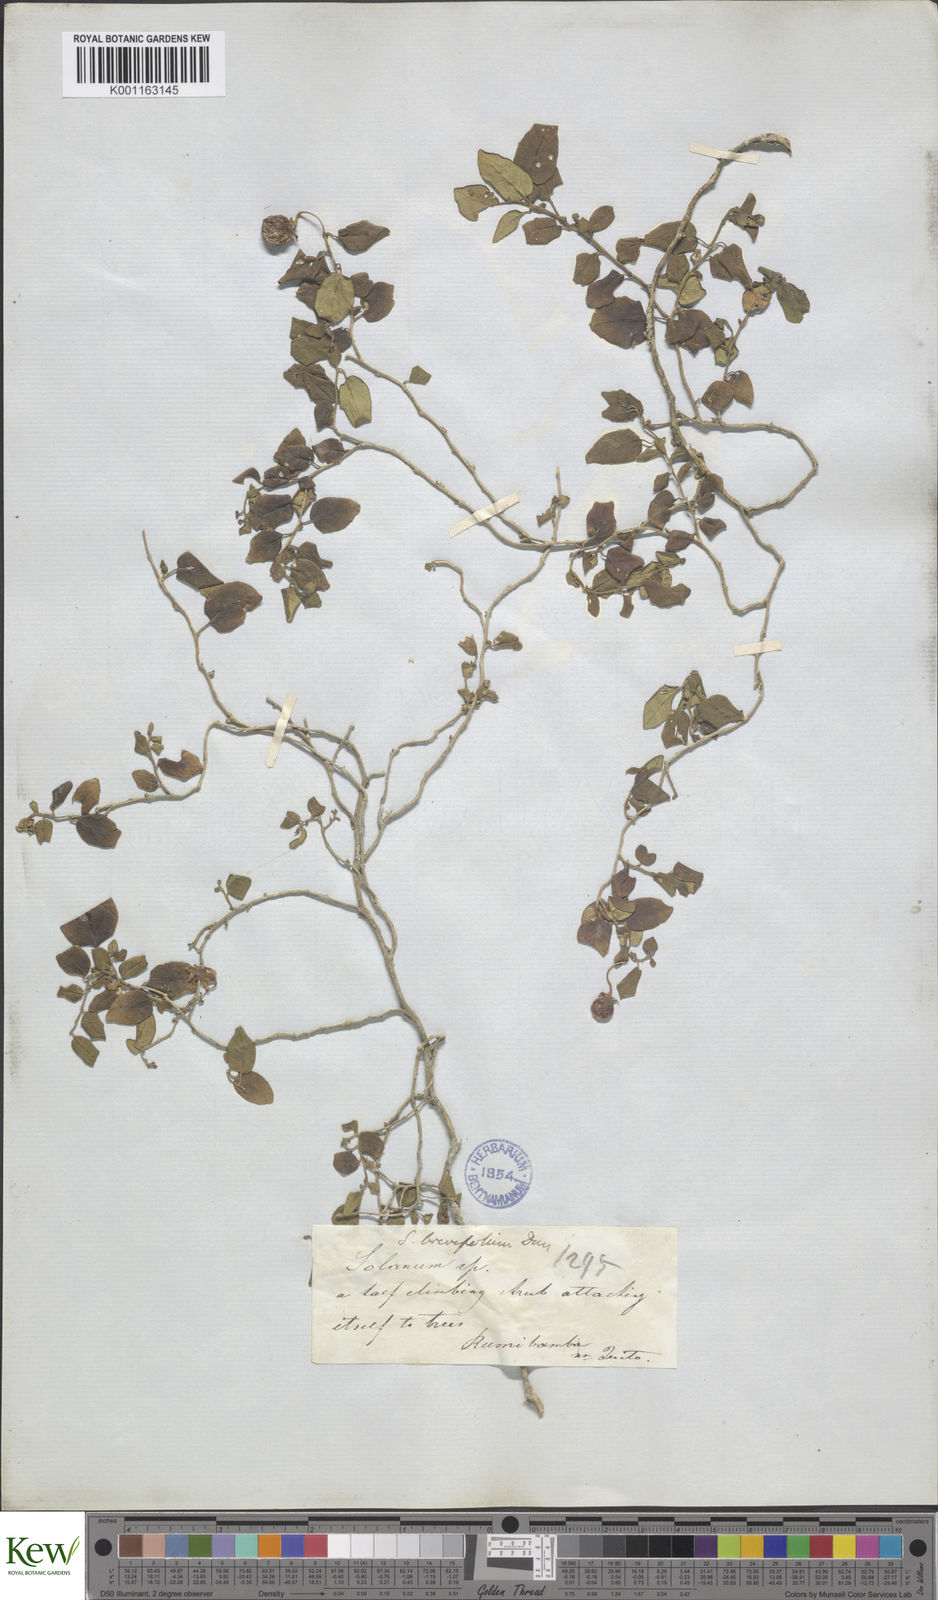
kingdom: Plantae
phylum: Tracheophyta
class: Magnoliopsida
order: Solanales
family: Solanaceae
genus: Solanum
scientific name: Solanum brevifolium
